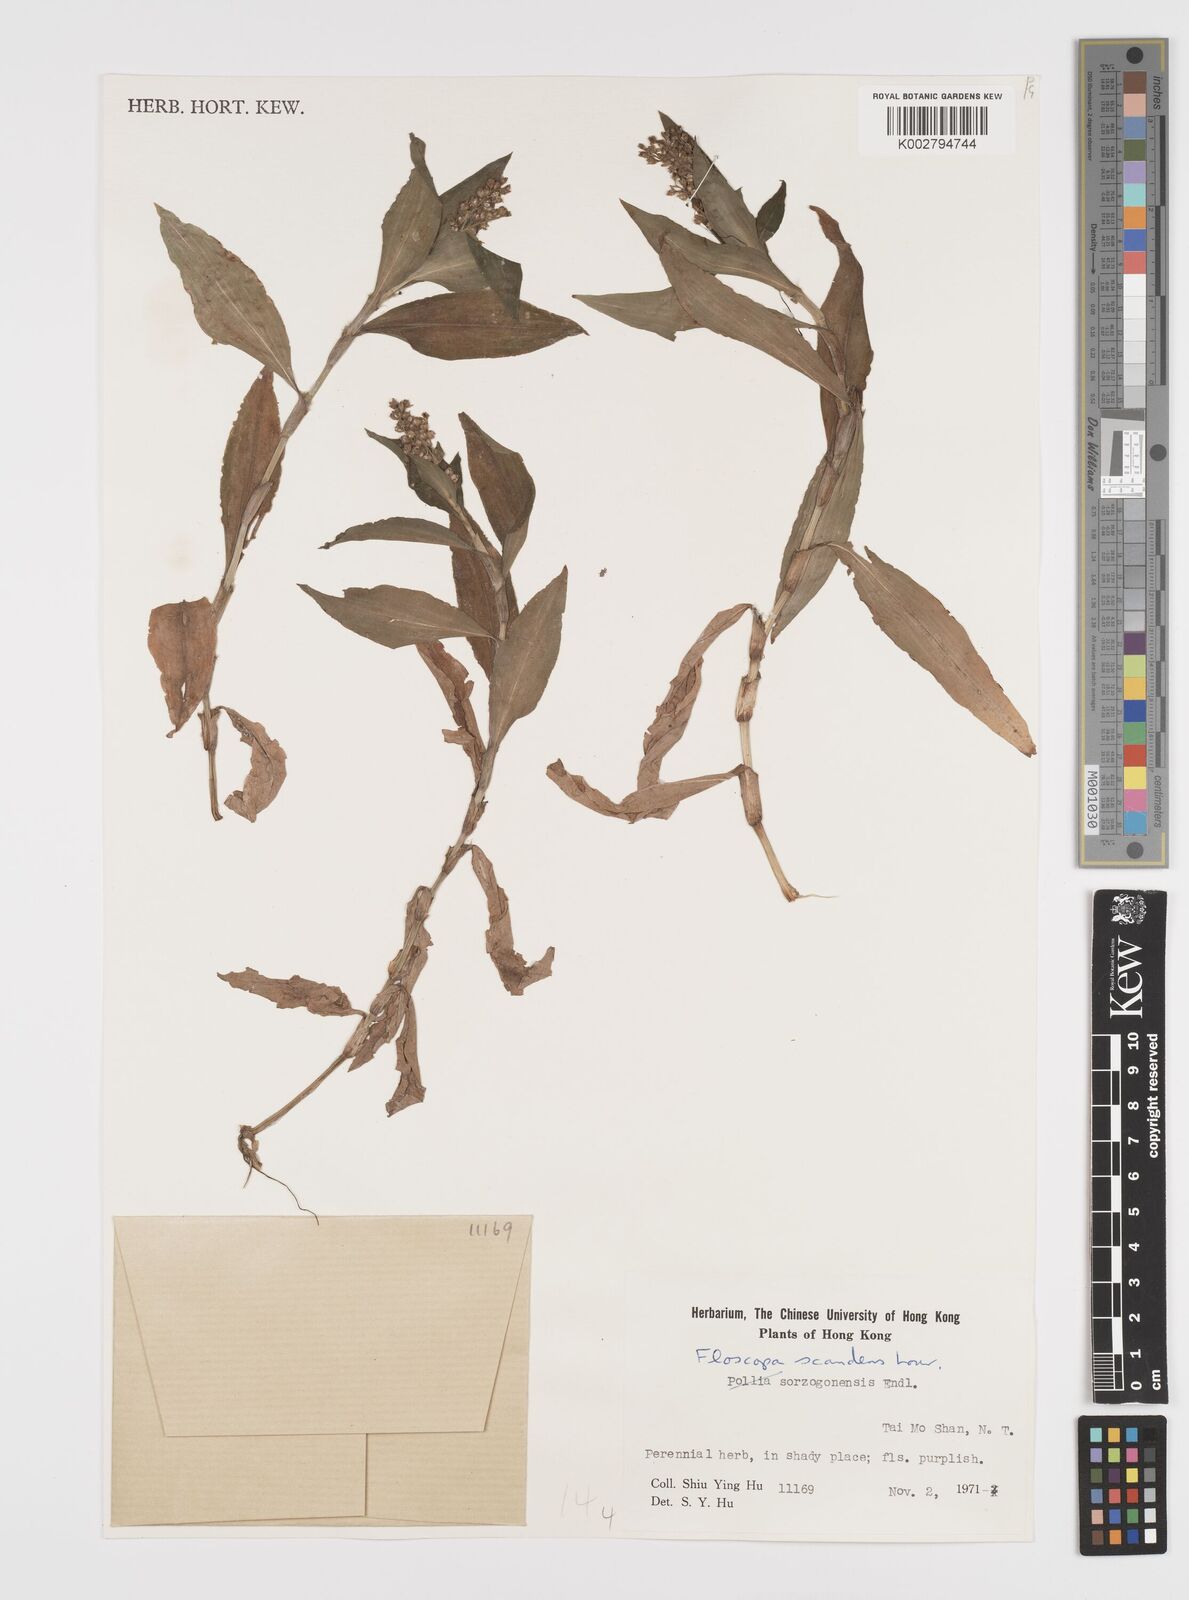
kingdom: Plantae
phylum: Tracheophyta
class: Liliopsida
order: Commelinales
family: Commelinaceae
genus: Floscopa
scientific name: Floscopa scandens
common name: Climbing flower cup
